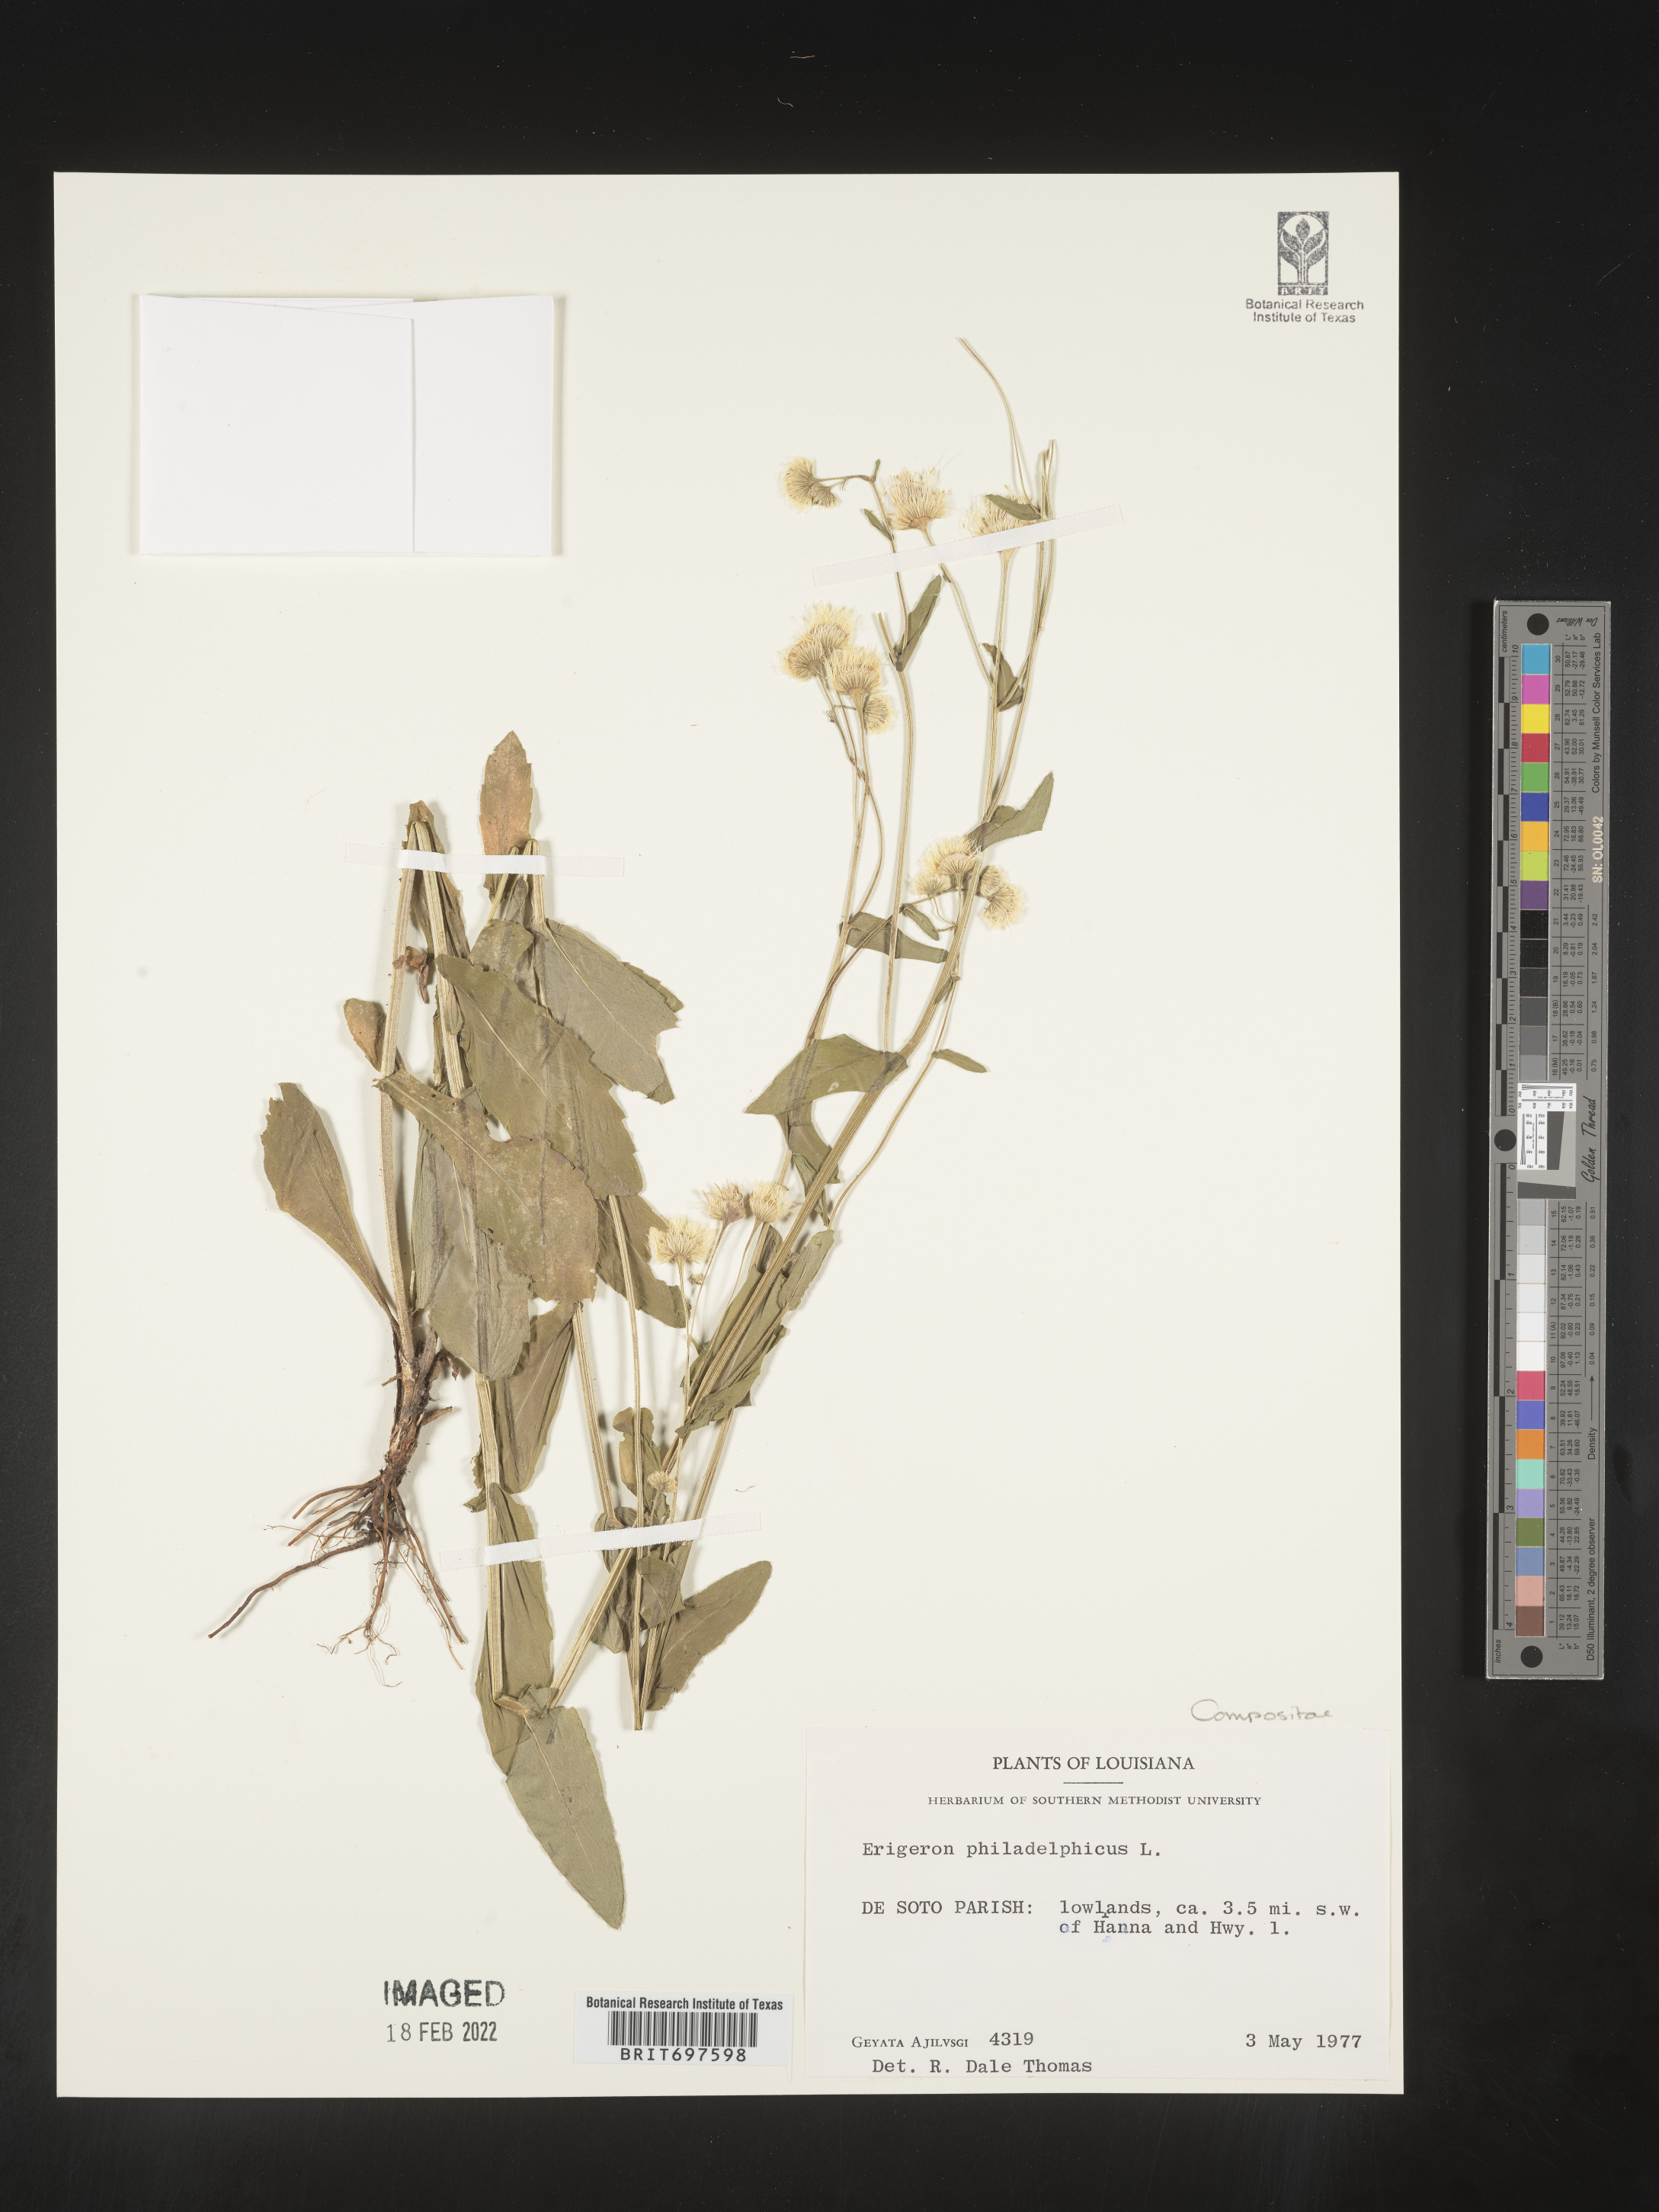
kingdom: Plantae
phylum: Tracheophyta
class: Magnoliopsida
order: Asterales
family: Asteraceae
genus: Erigeron
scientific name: Erigeron philadelphicus
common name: Robin's-plantain
